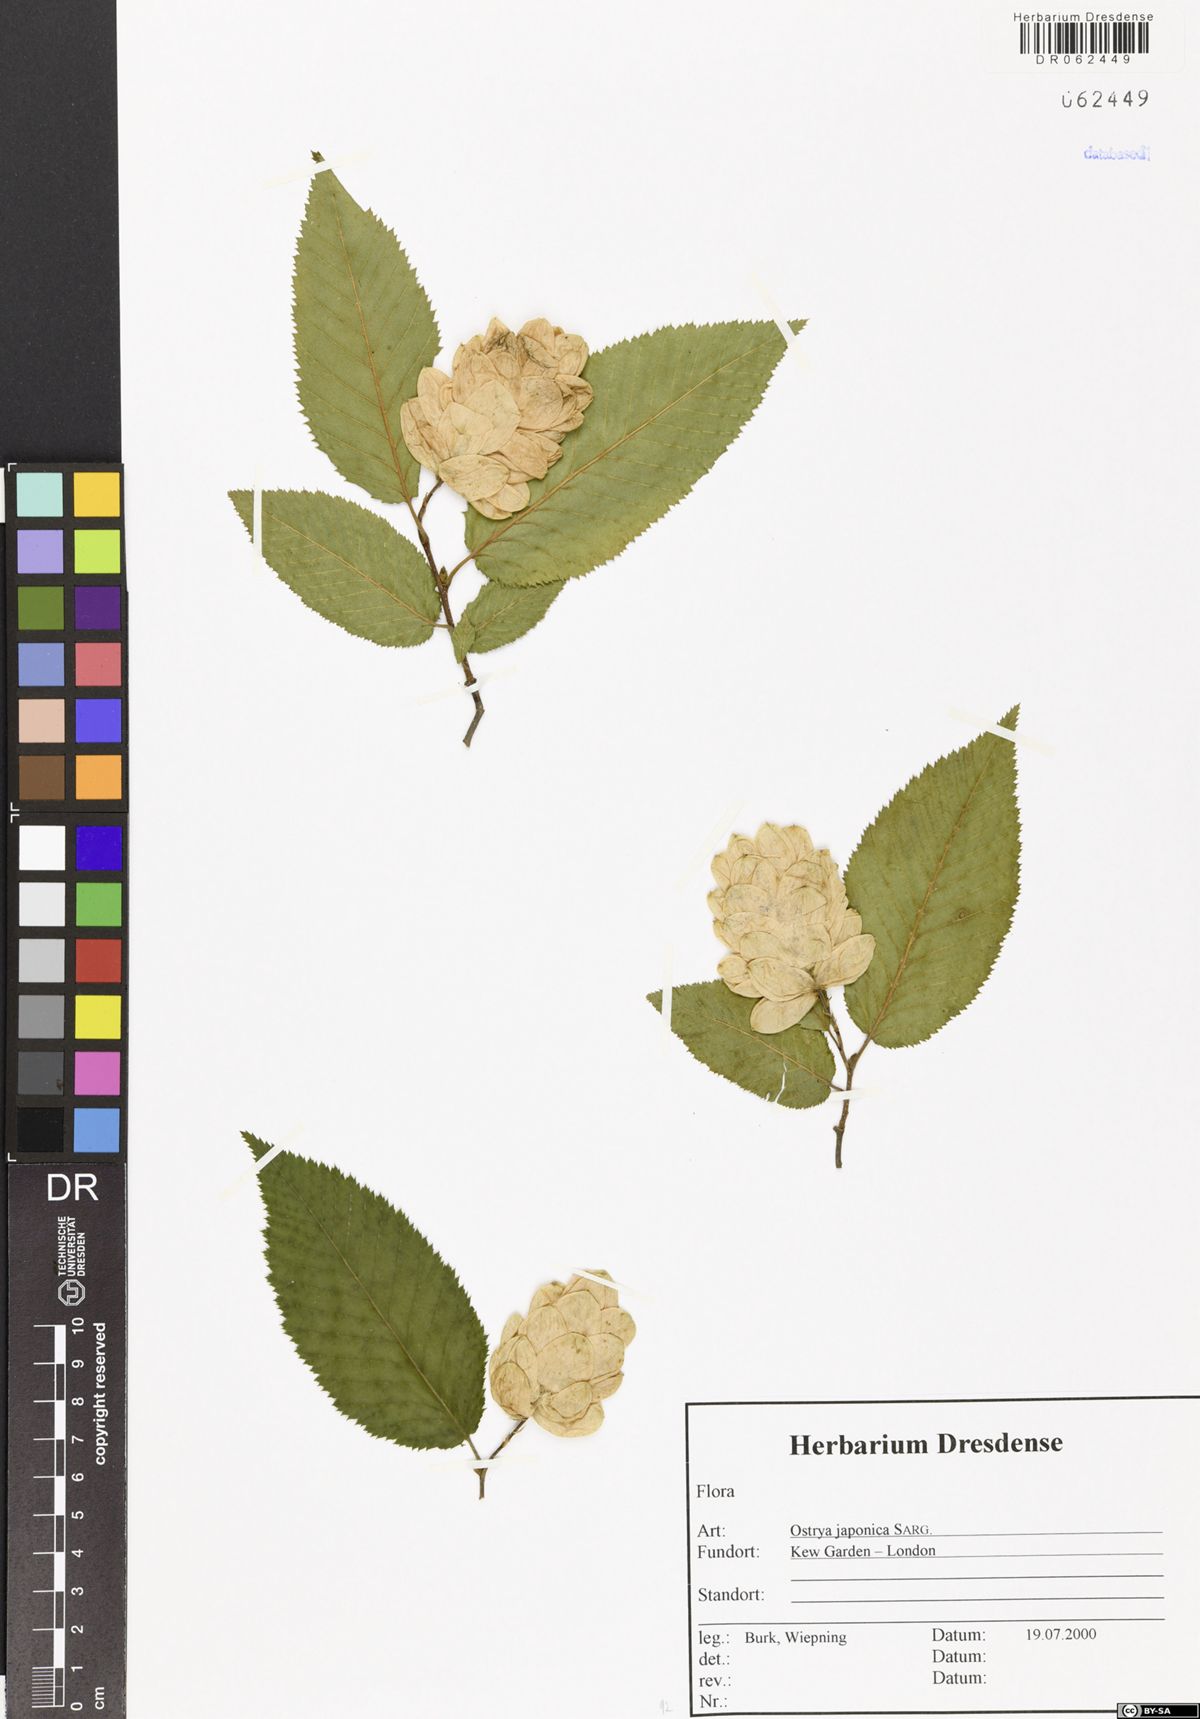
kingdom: Plantae
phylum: Tracheophyta
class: Magnoliopsida
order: Fagales
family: Betulaceae
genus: Ostrya
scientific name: Ostrya japonica
